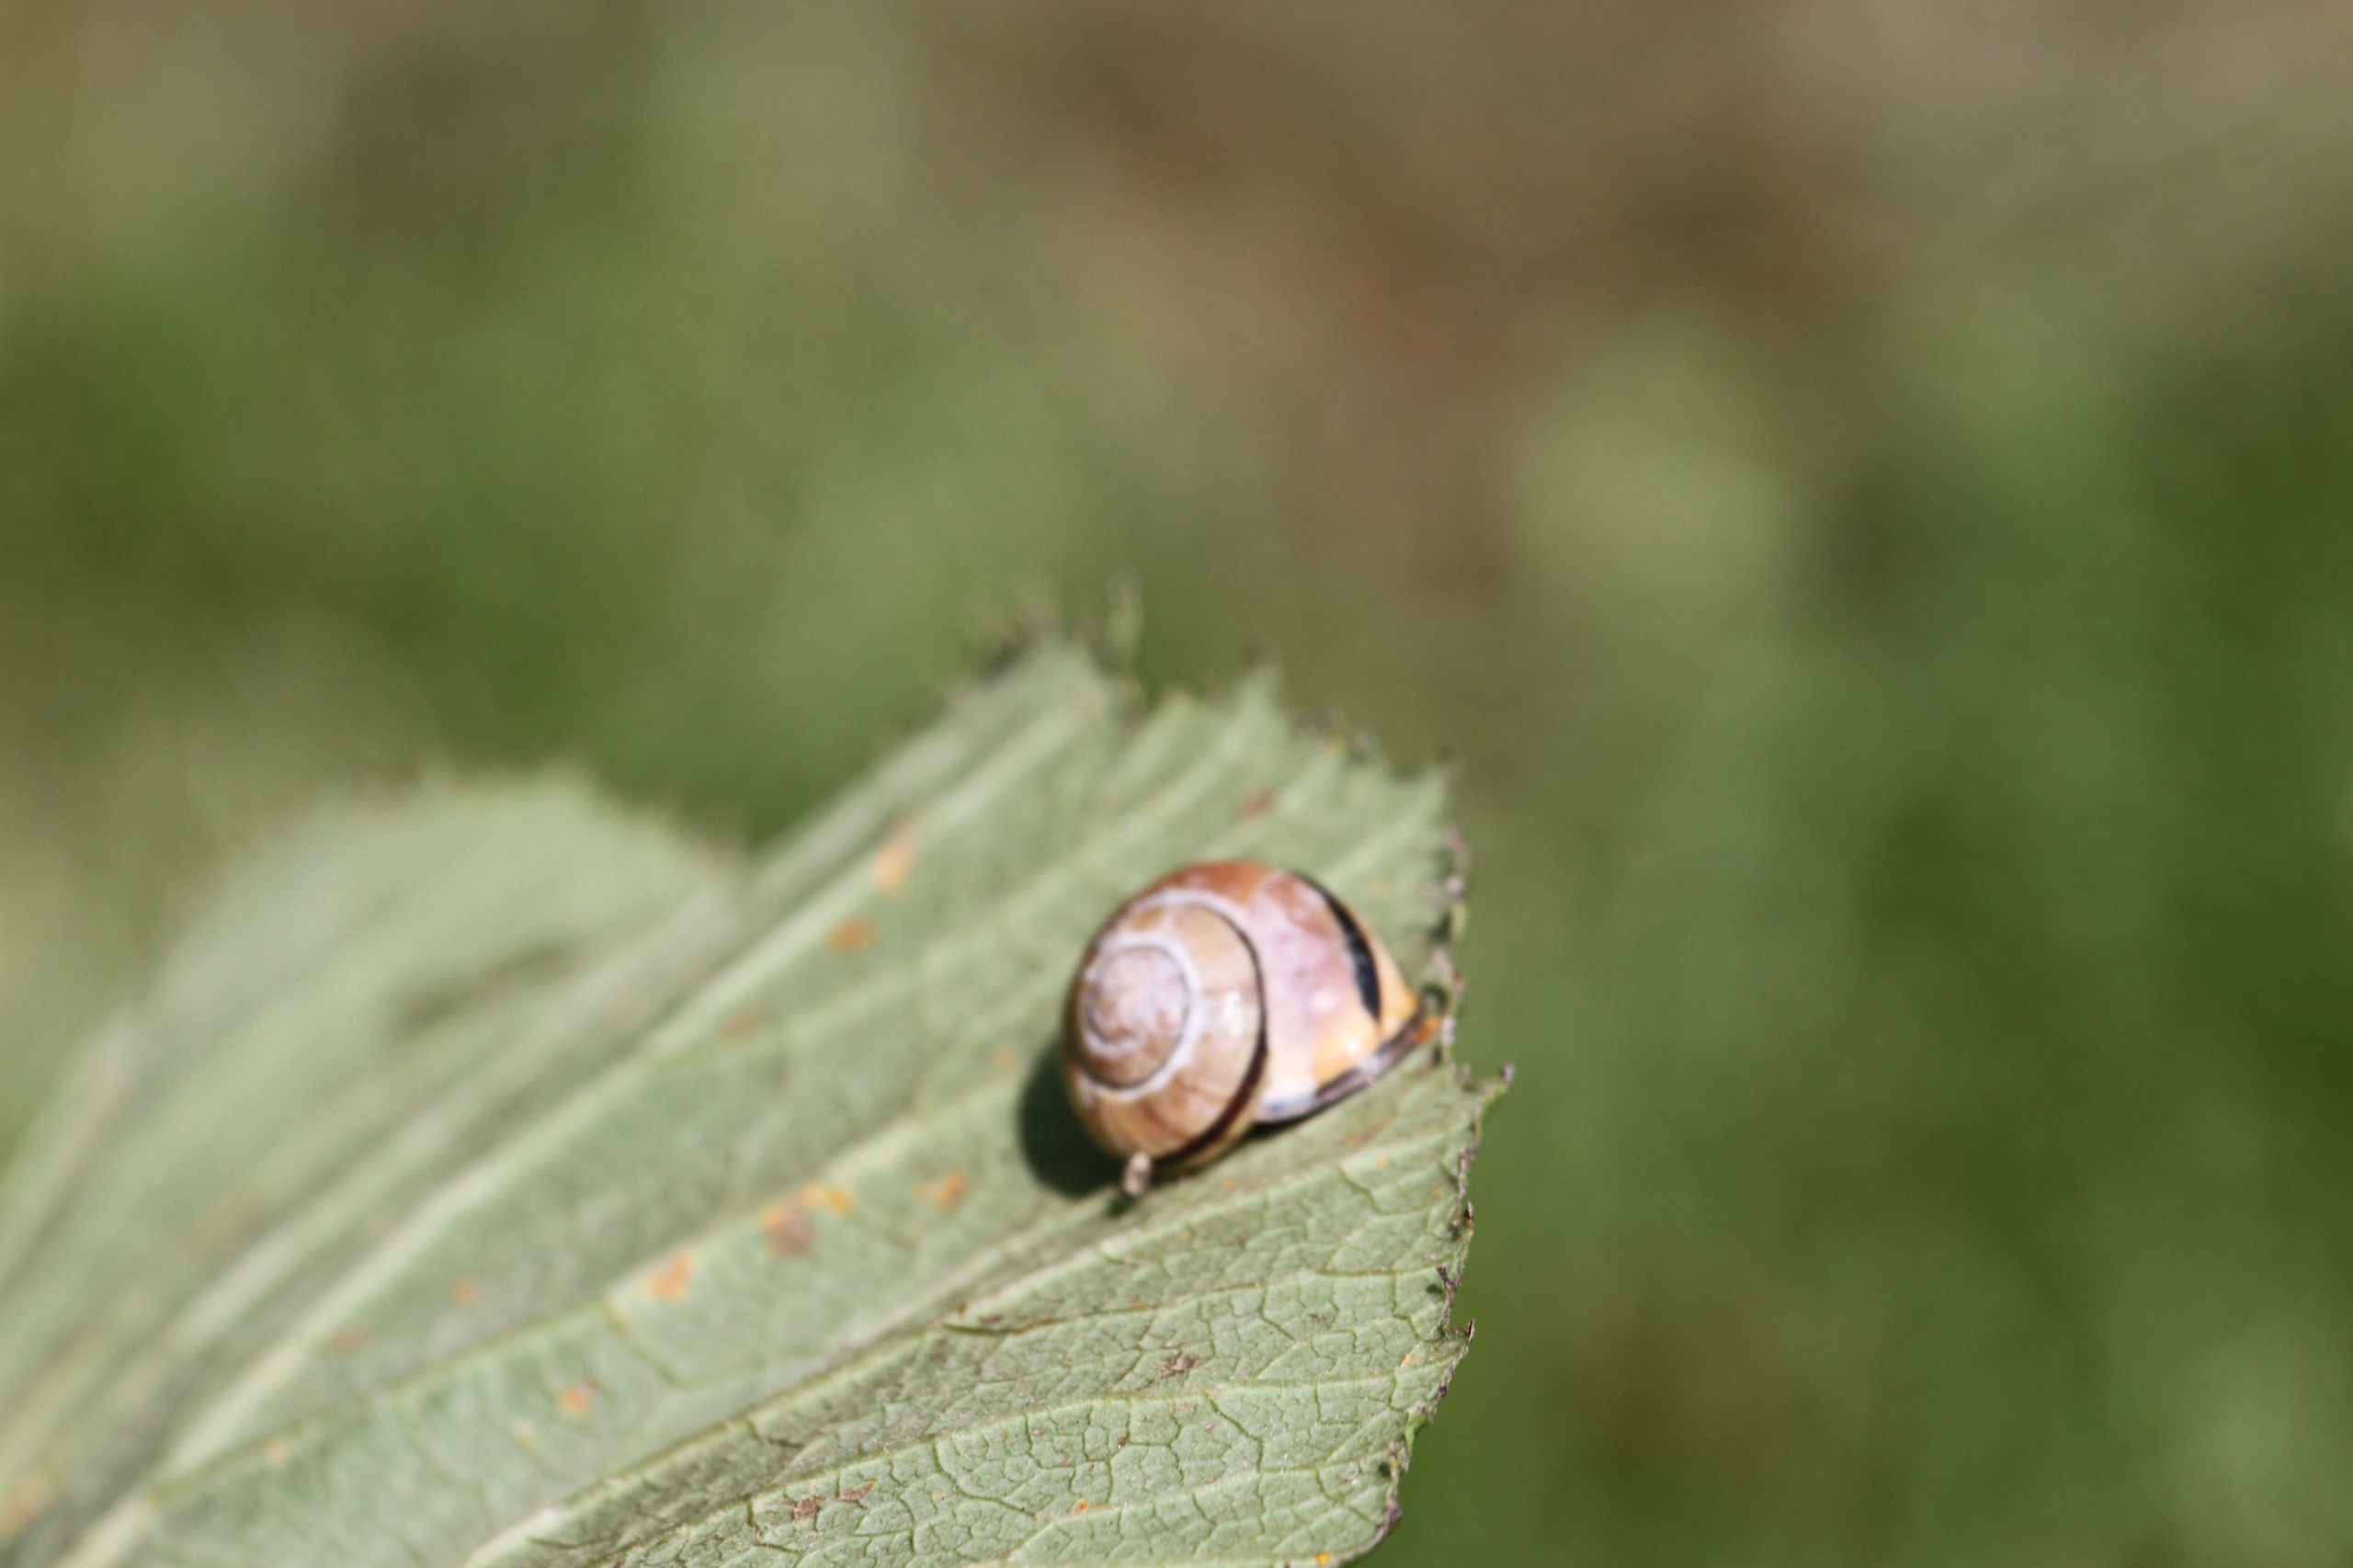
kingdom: Animalia
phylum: Mollusca
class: Gastropoda
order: Stylommatophora
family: Helicidae
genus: Cepaea
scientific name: Cepaea nemoralis
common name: Lundsnegl
